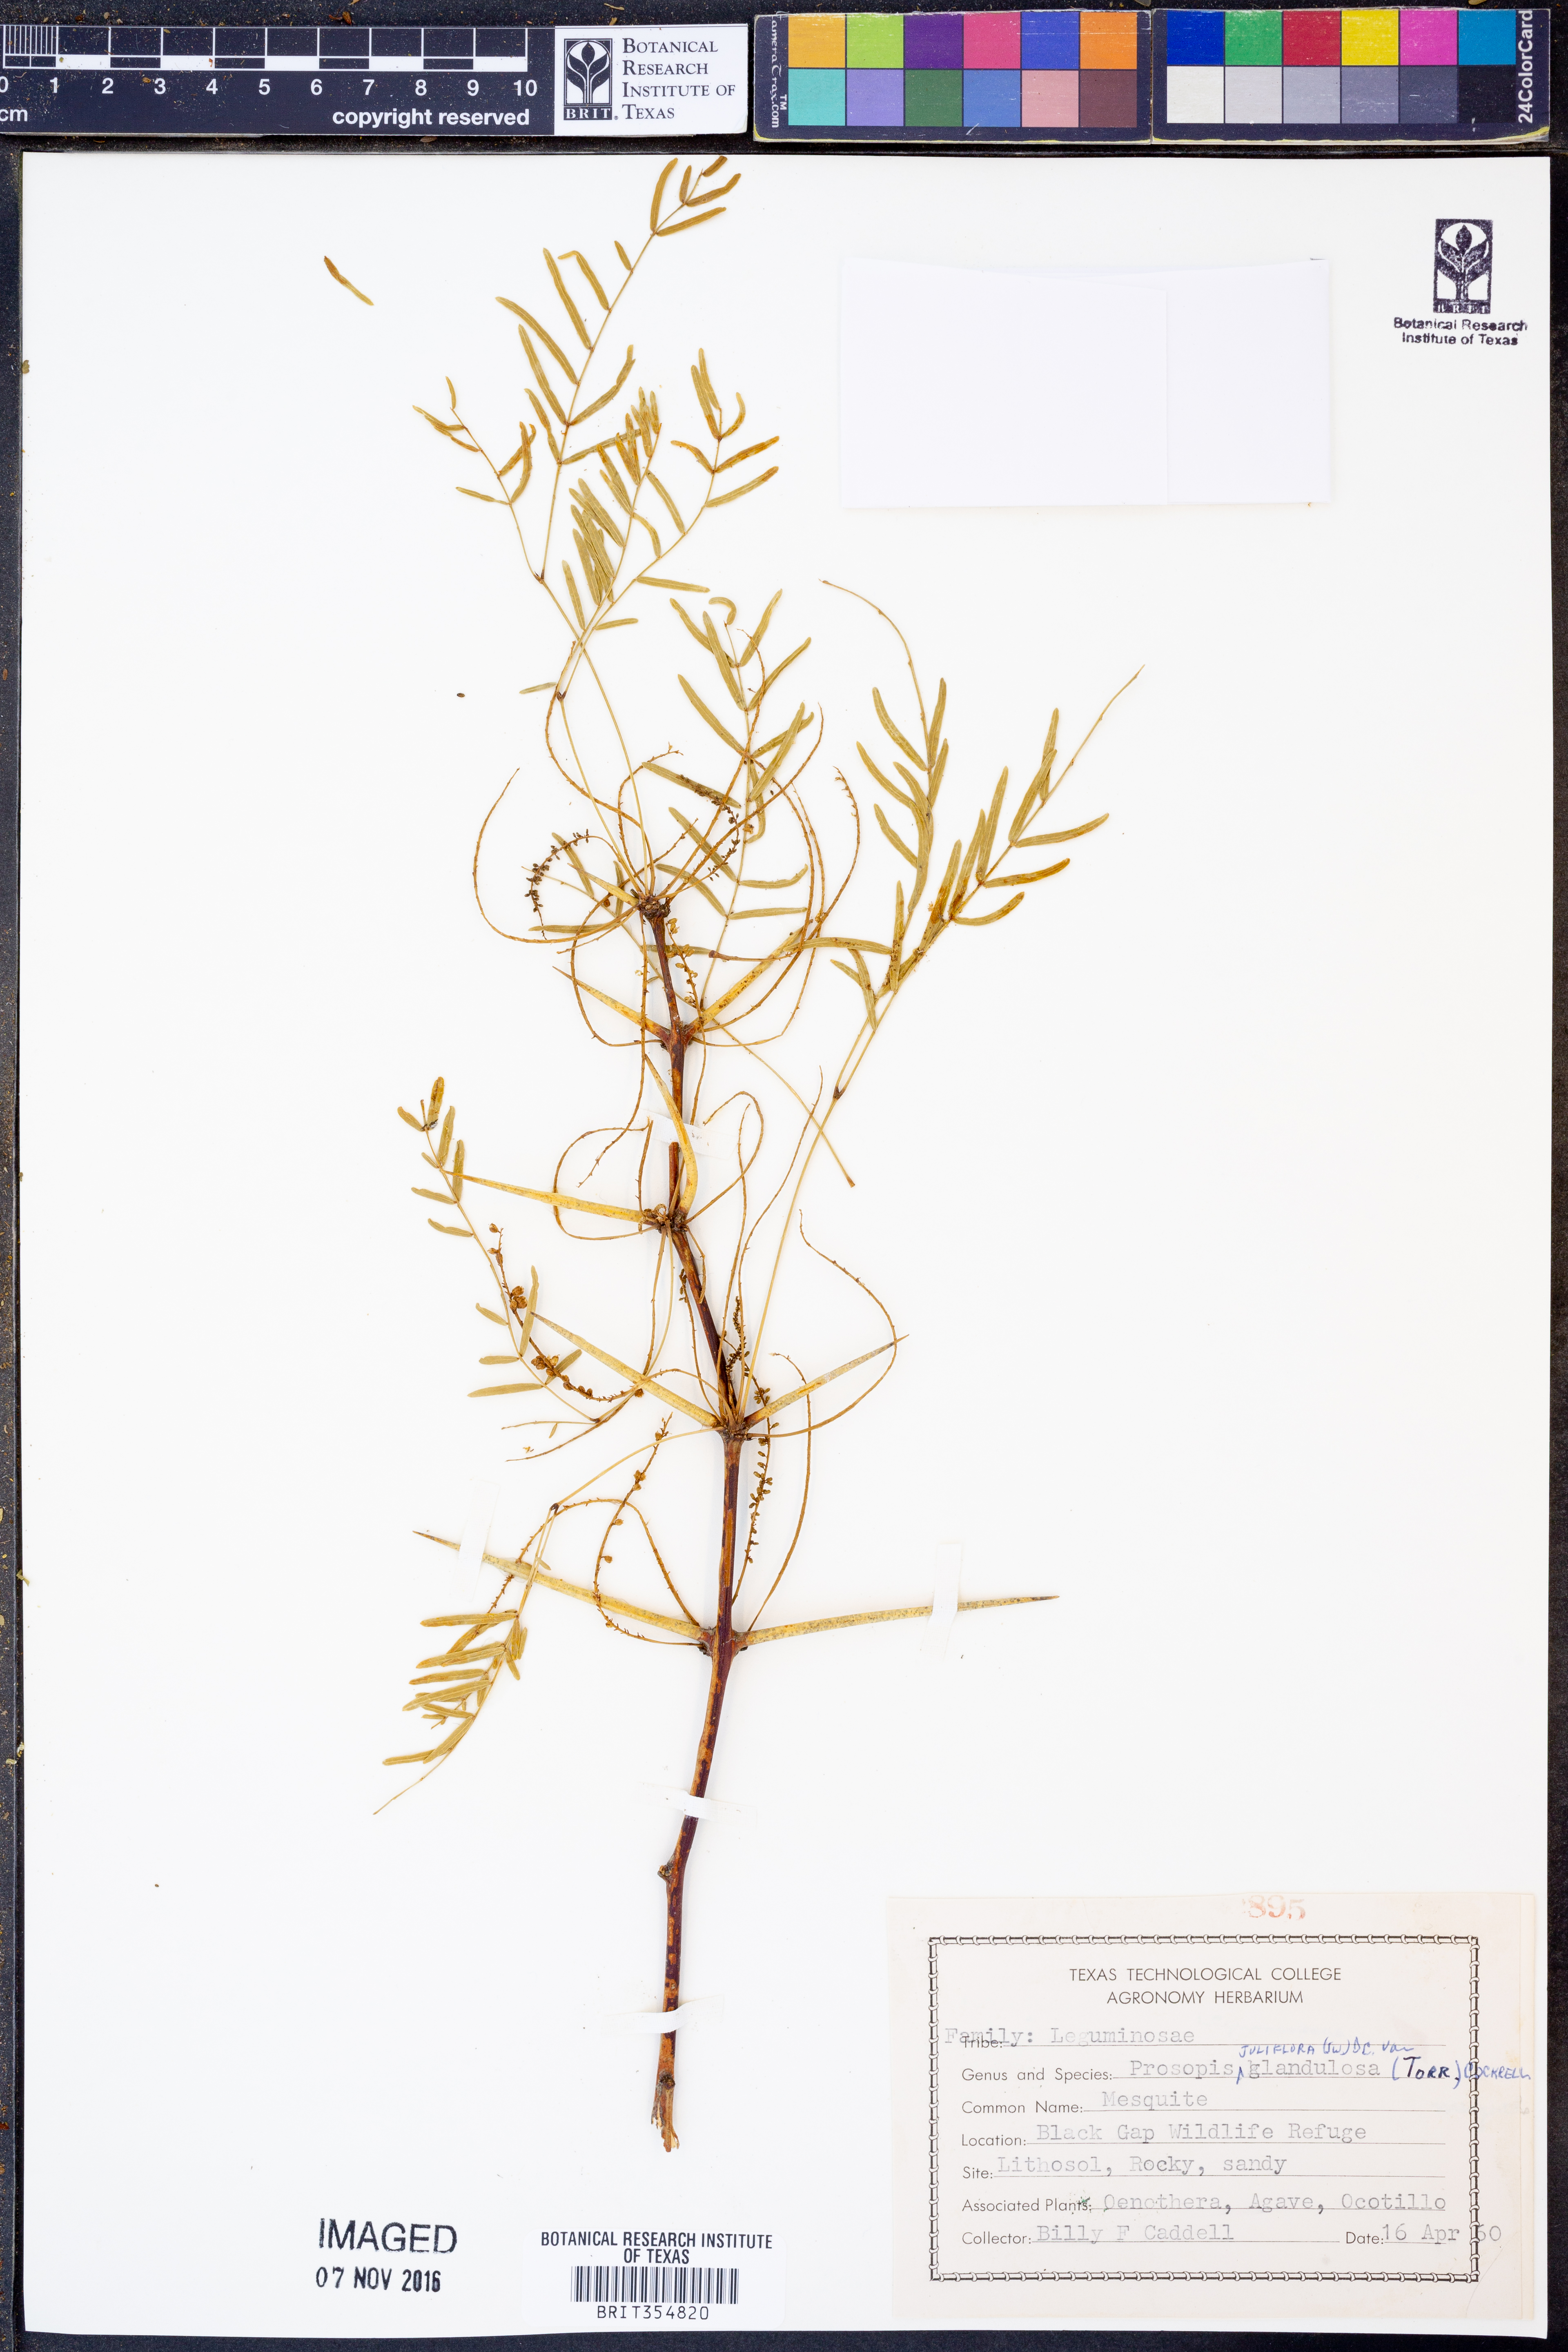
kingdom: Plantae
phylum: Tracheophyta
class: Magnoliopsida
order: Fabales
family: Fabaceae
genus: Prosopis
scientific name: Prosopis glandulosa
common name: Honey mesquite
